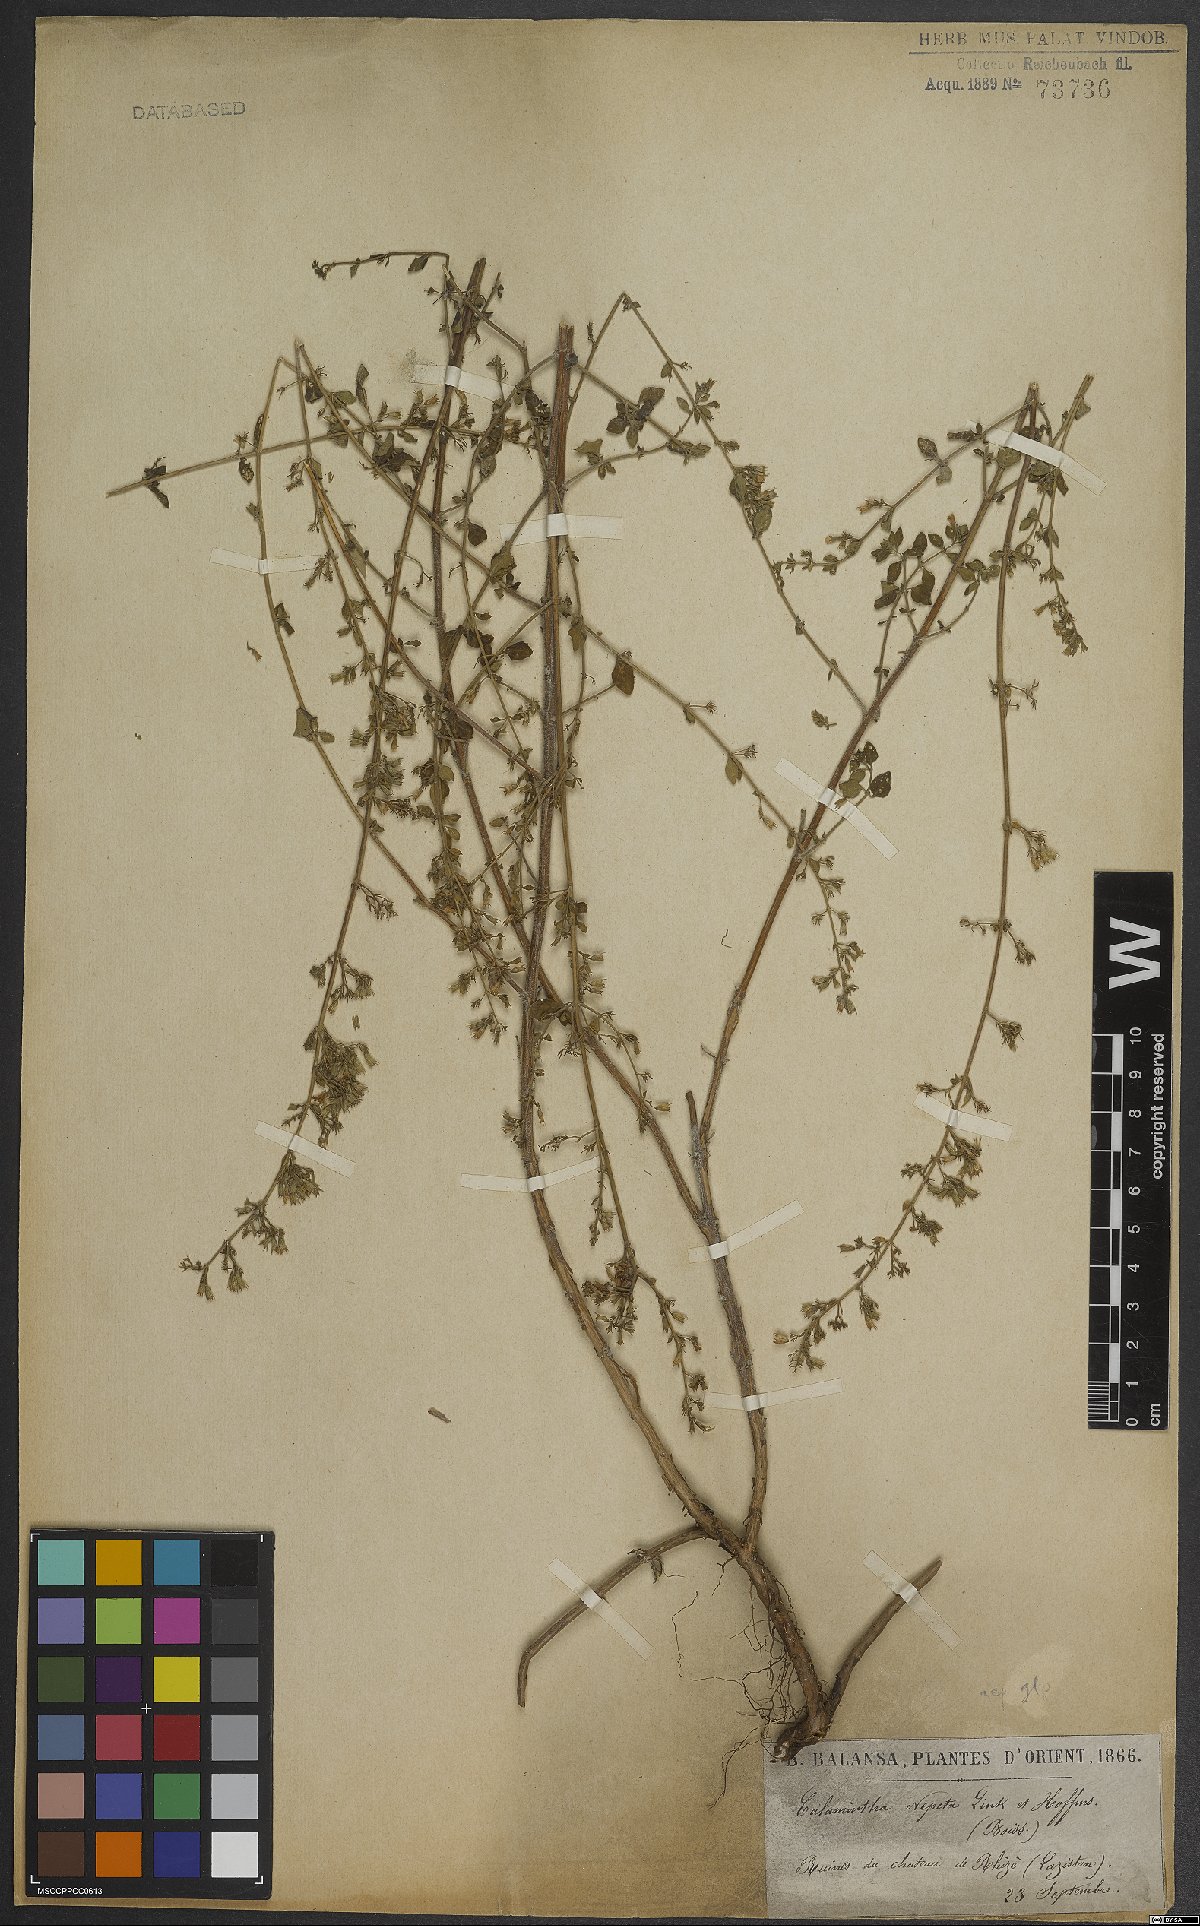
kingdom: Plantae
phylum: Tracheophyta
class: Magnoliopsida
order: Lamiales
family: Lamiaceae
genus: Clinopodium
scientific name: Clinopodium nepeta
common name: Lesser calamint
